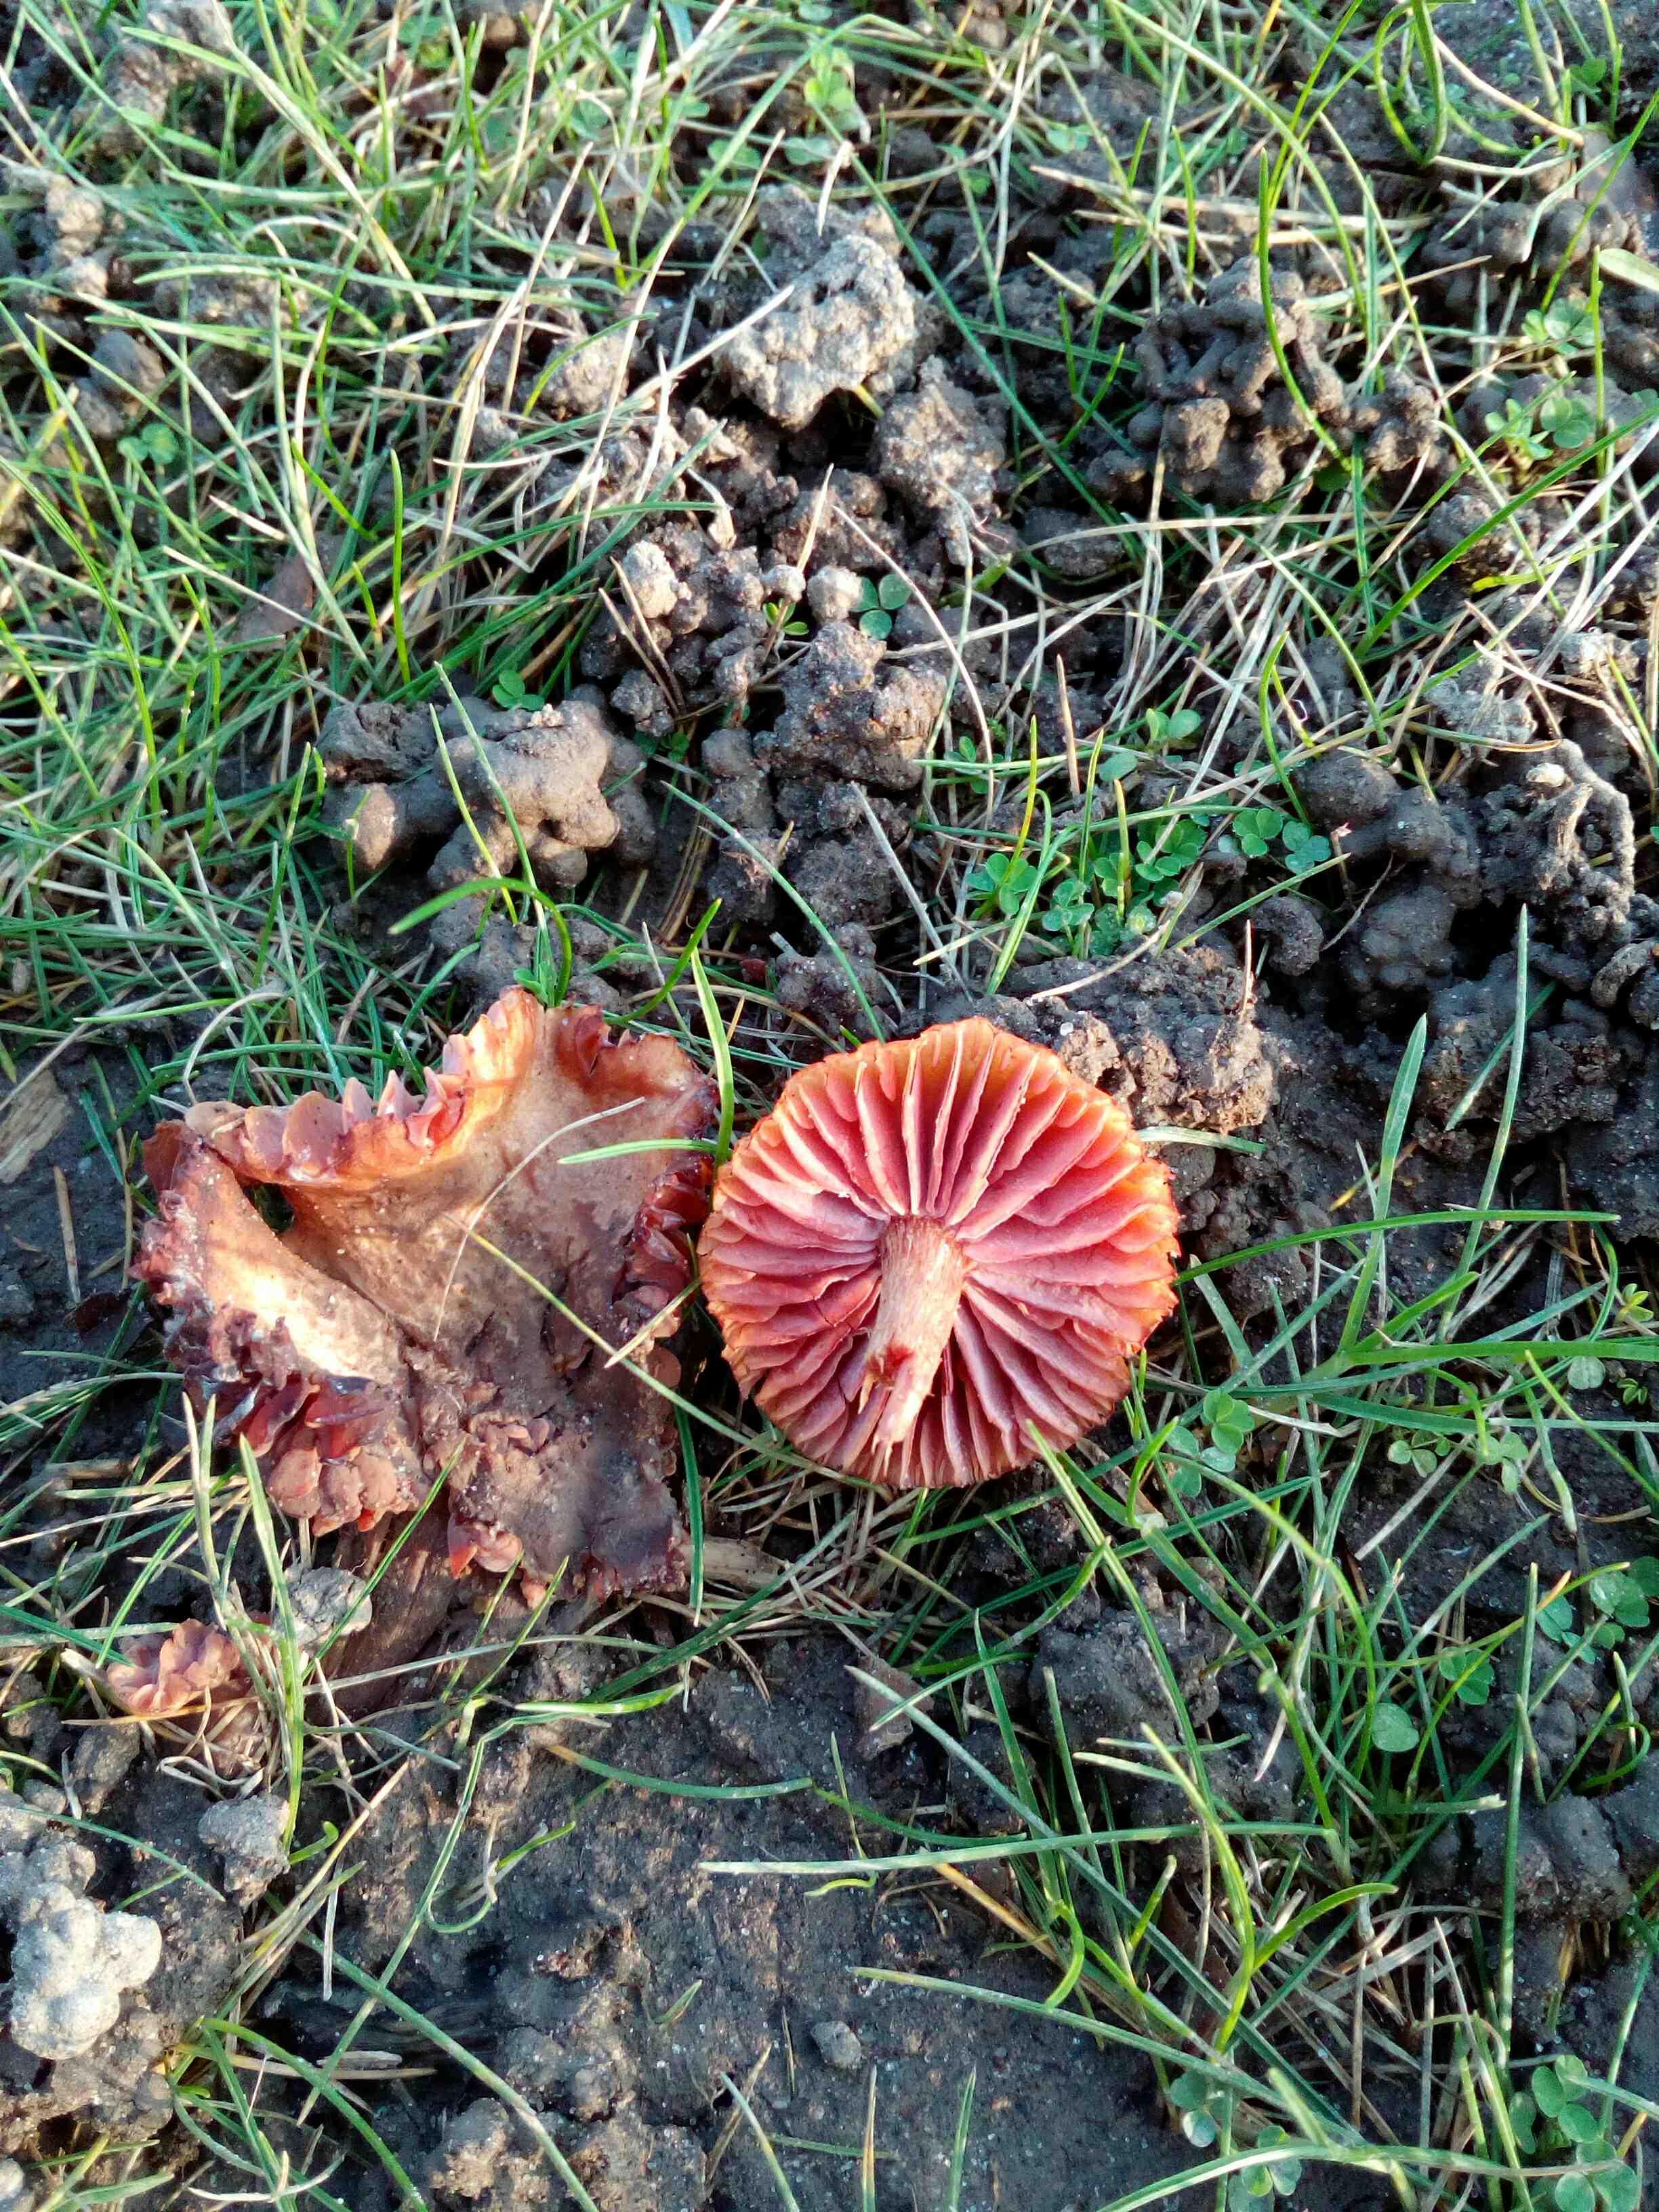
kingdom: Fungi
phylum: Basidiomycota
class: Agaricomycetes
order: Agaricales
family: Hydnangiaceae
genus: Laccaria
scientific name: Laccaria laccata
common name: rød ametysthat
